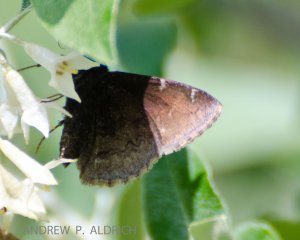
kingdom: Animalia
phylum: Arthropoda
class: Insecta
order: Lepidoptera
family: Hesperiidae
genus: Autochton
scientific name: Autochton
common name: Northern Cloudywing
